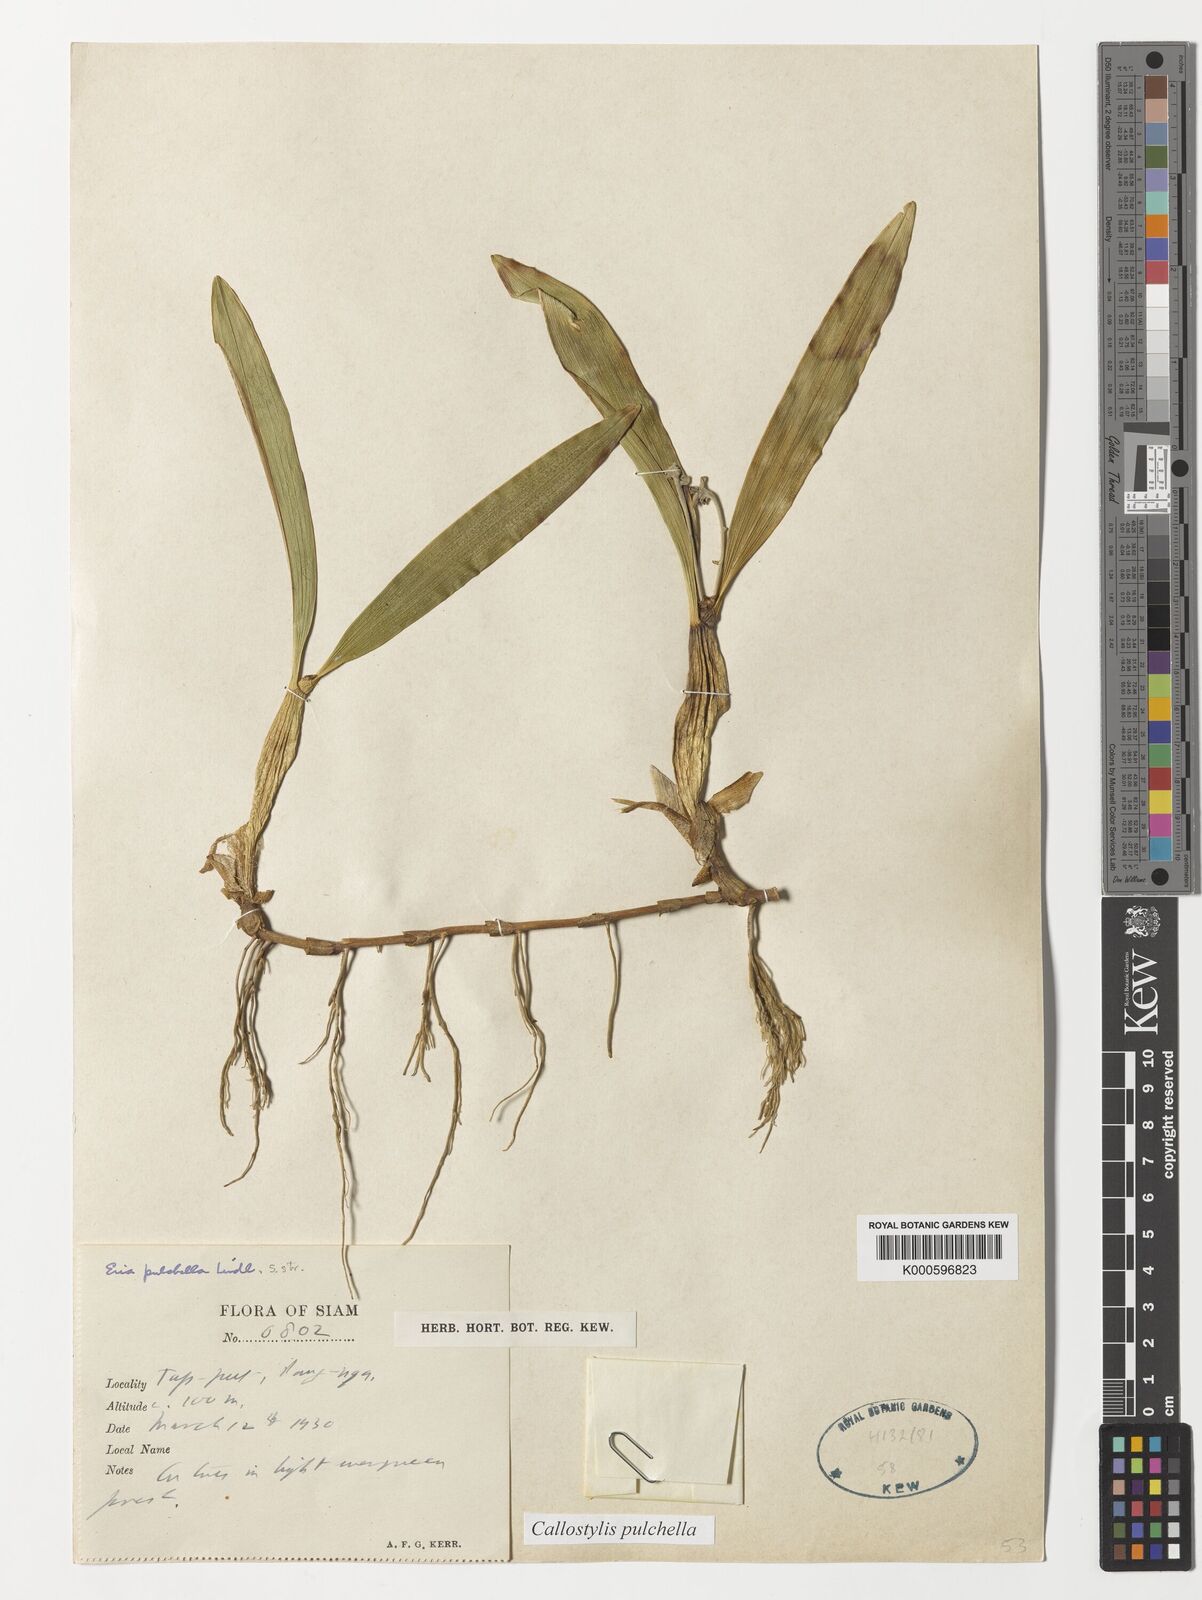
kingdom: Plantae
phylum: Tracheophyta
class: Liliopsida
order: Asparagales
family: Orchidaceae
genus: Callostylis
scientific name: Callostylis pulchella
